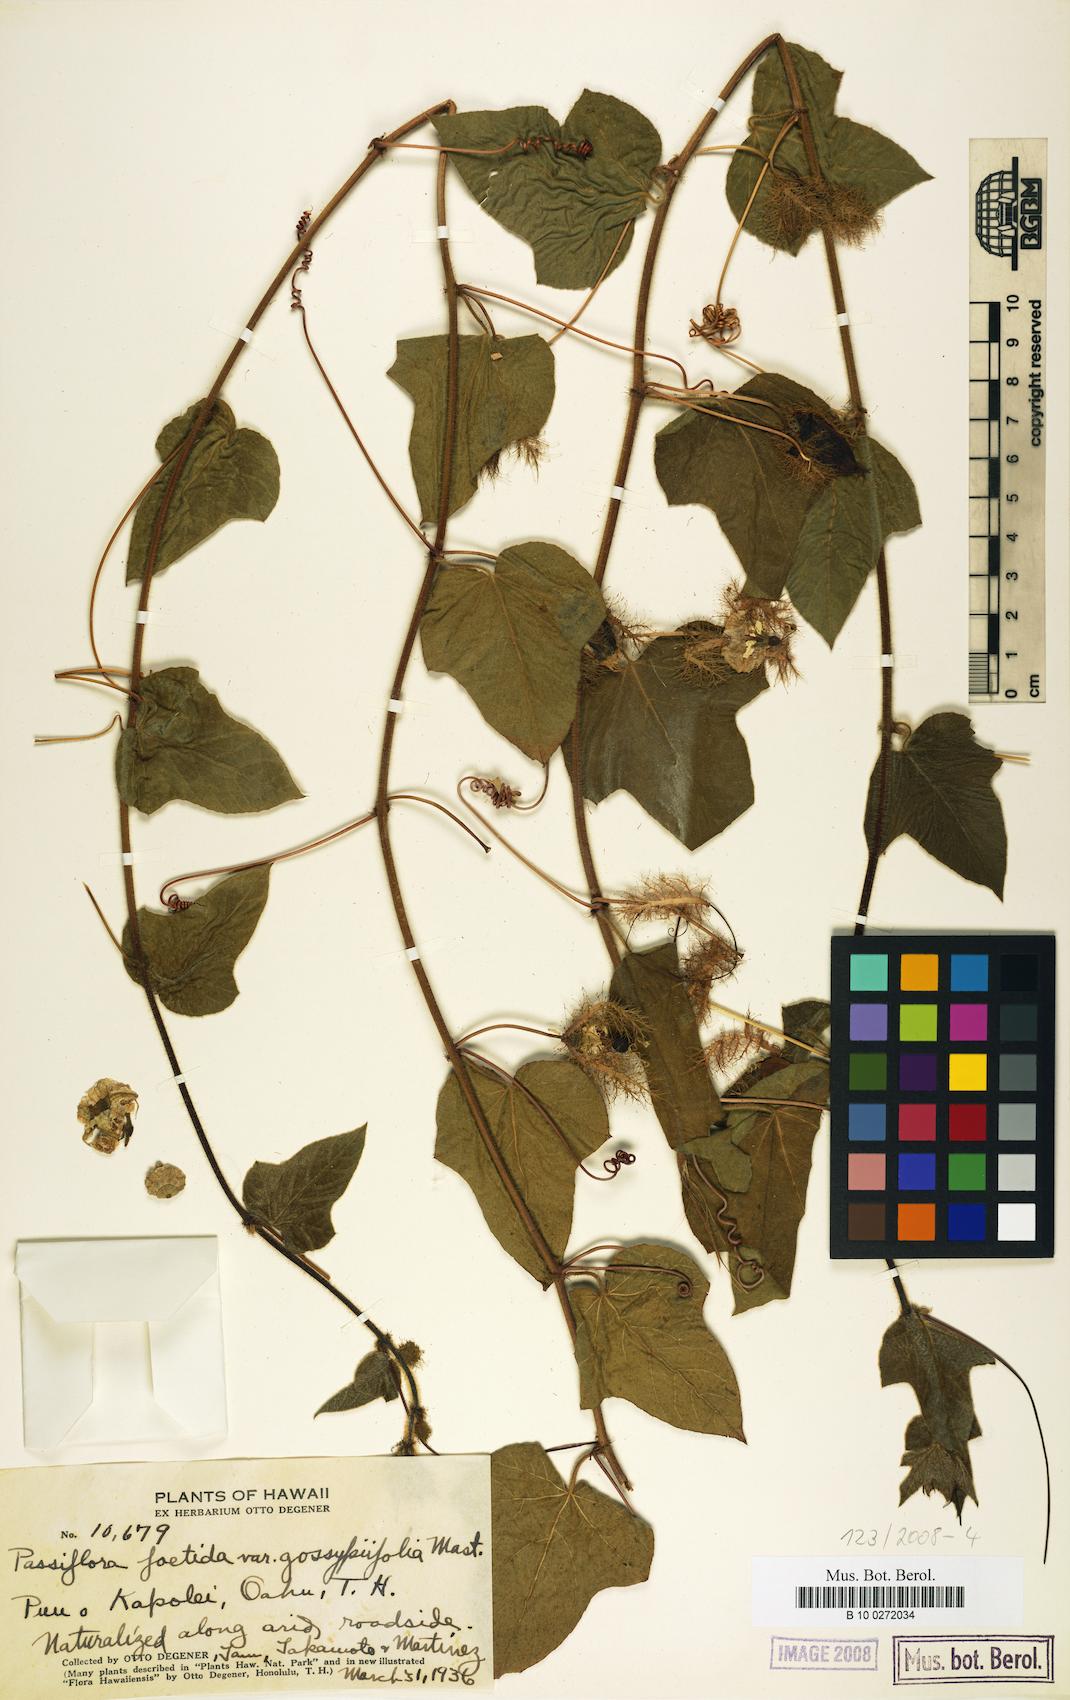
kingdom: Plantae
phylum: Tracheophyta
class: Magnoliopsida
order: Malpighiales
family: Passifloraceae
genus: Passiflora
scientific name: Passiflora foetida
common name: Fetid passionflower
